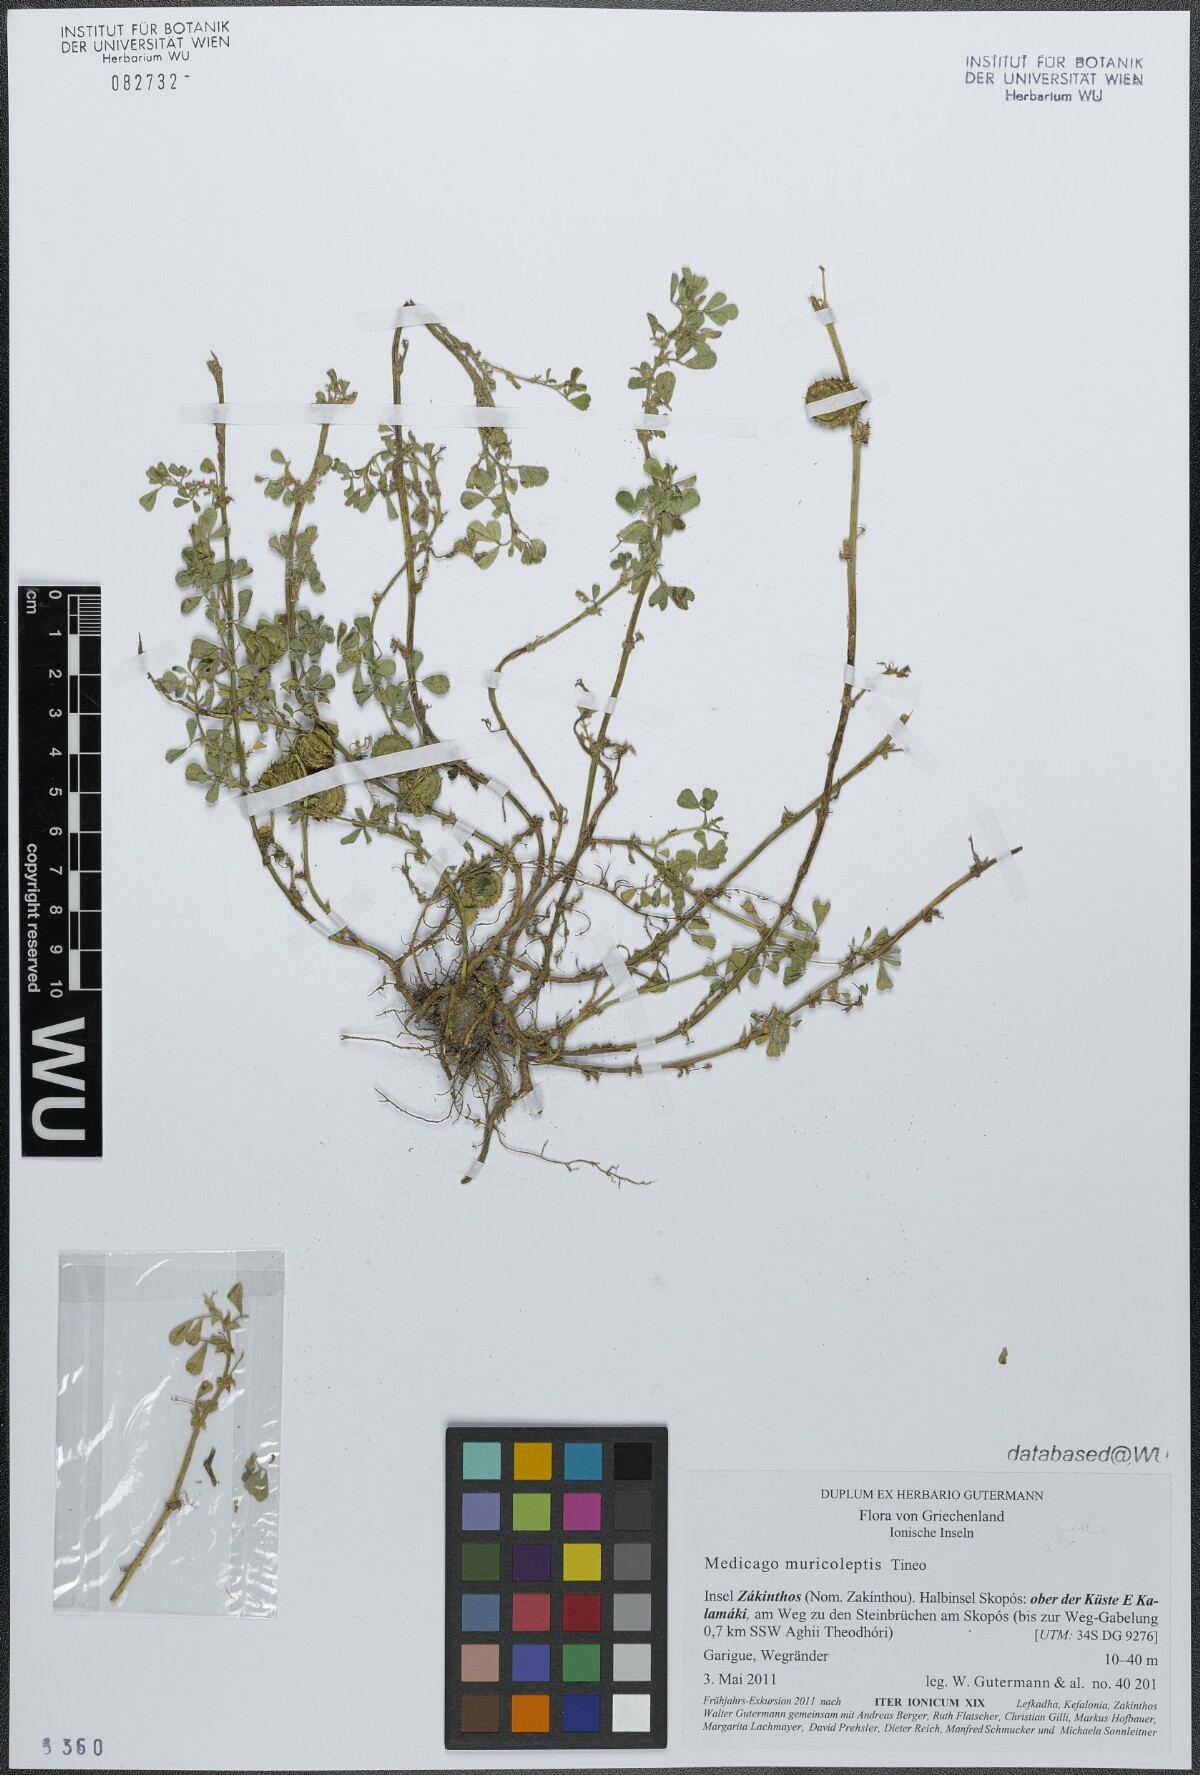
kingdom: Plantae
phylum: Tracheophyta
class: Magnoliopsida
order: Fabales
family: Fabaceae
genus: Medicago
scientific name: Medicago muricoleptis
